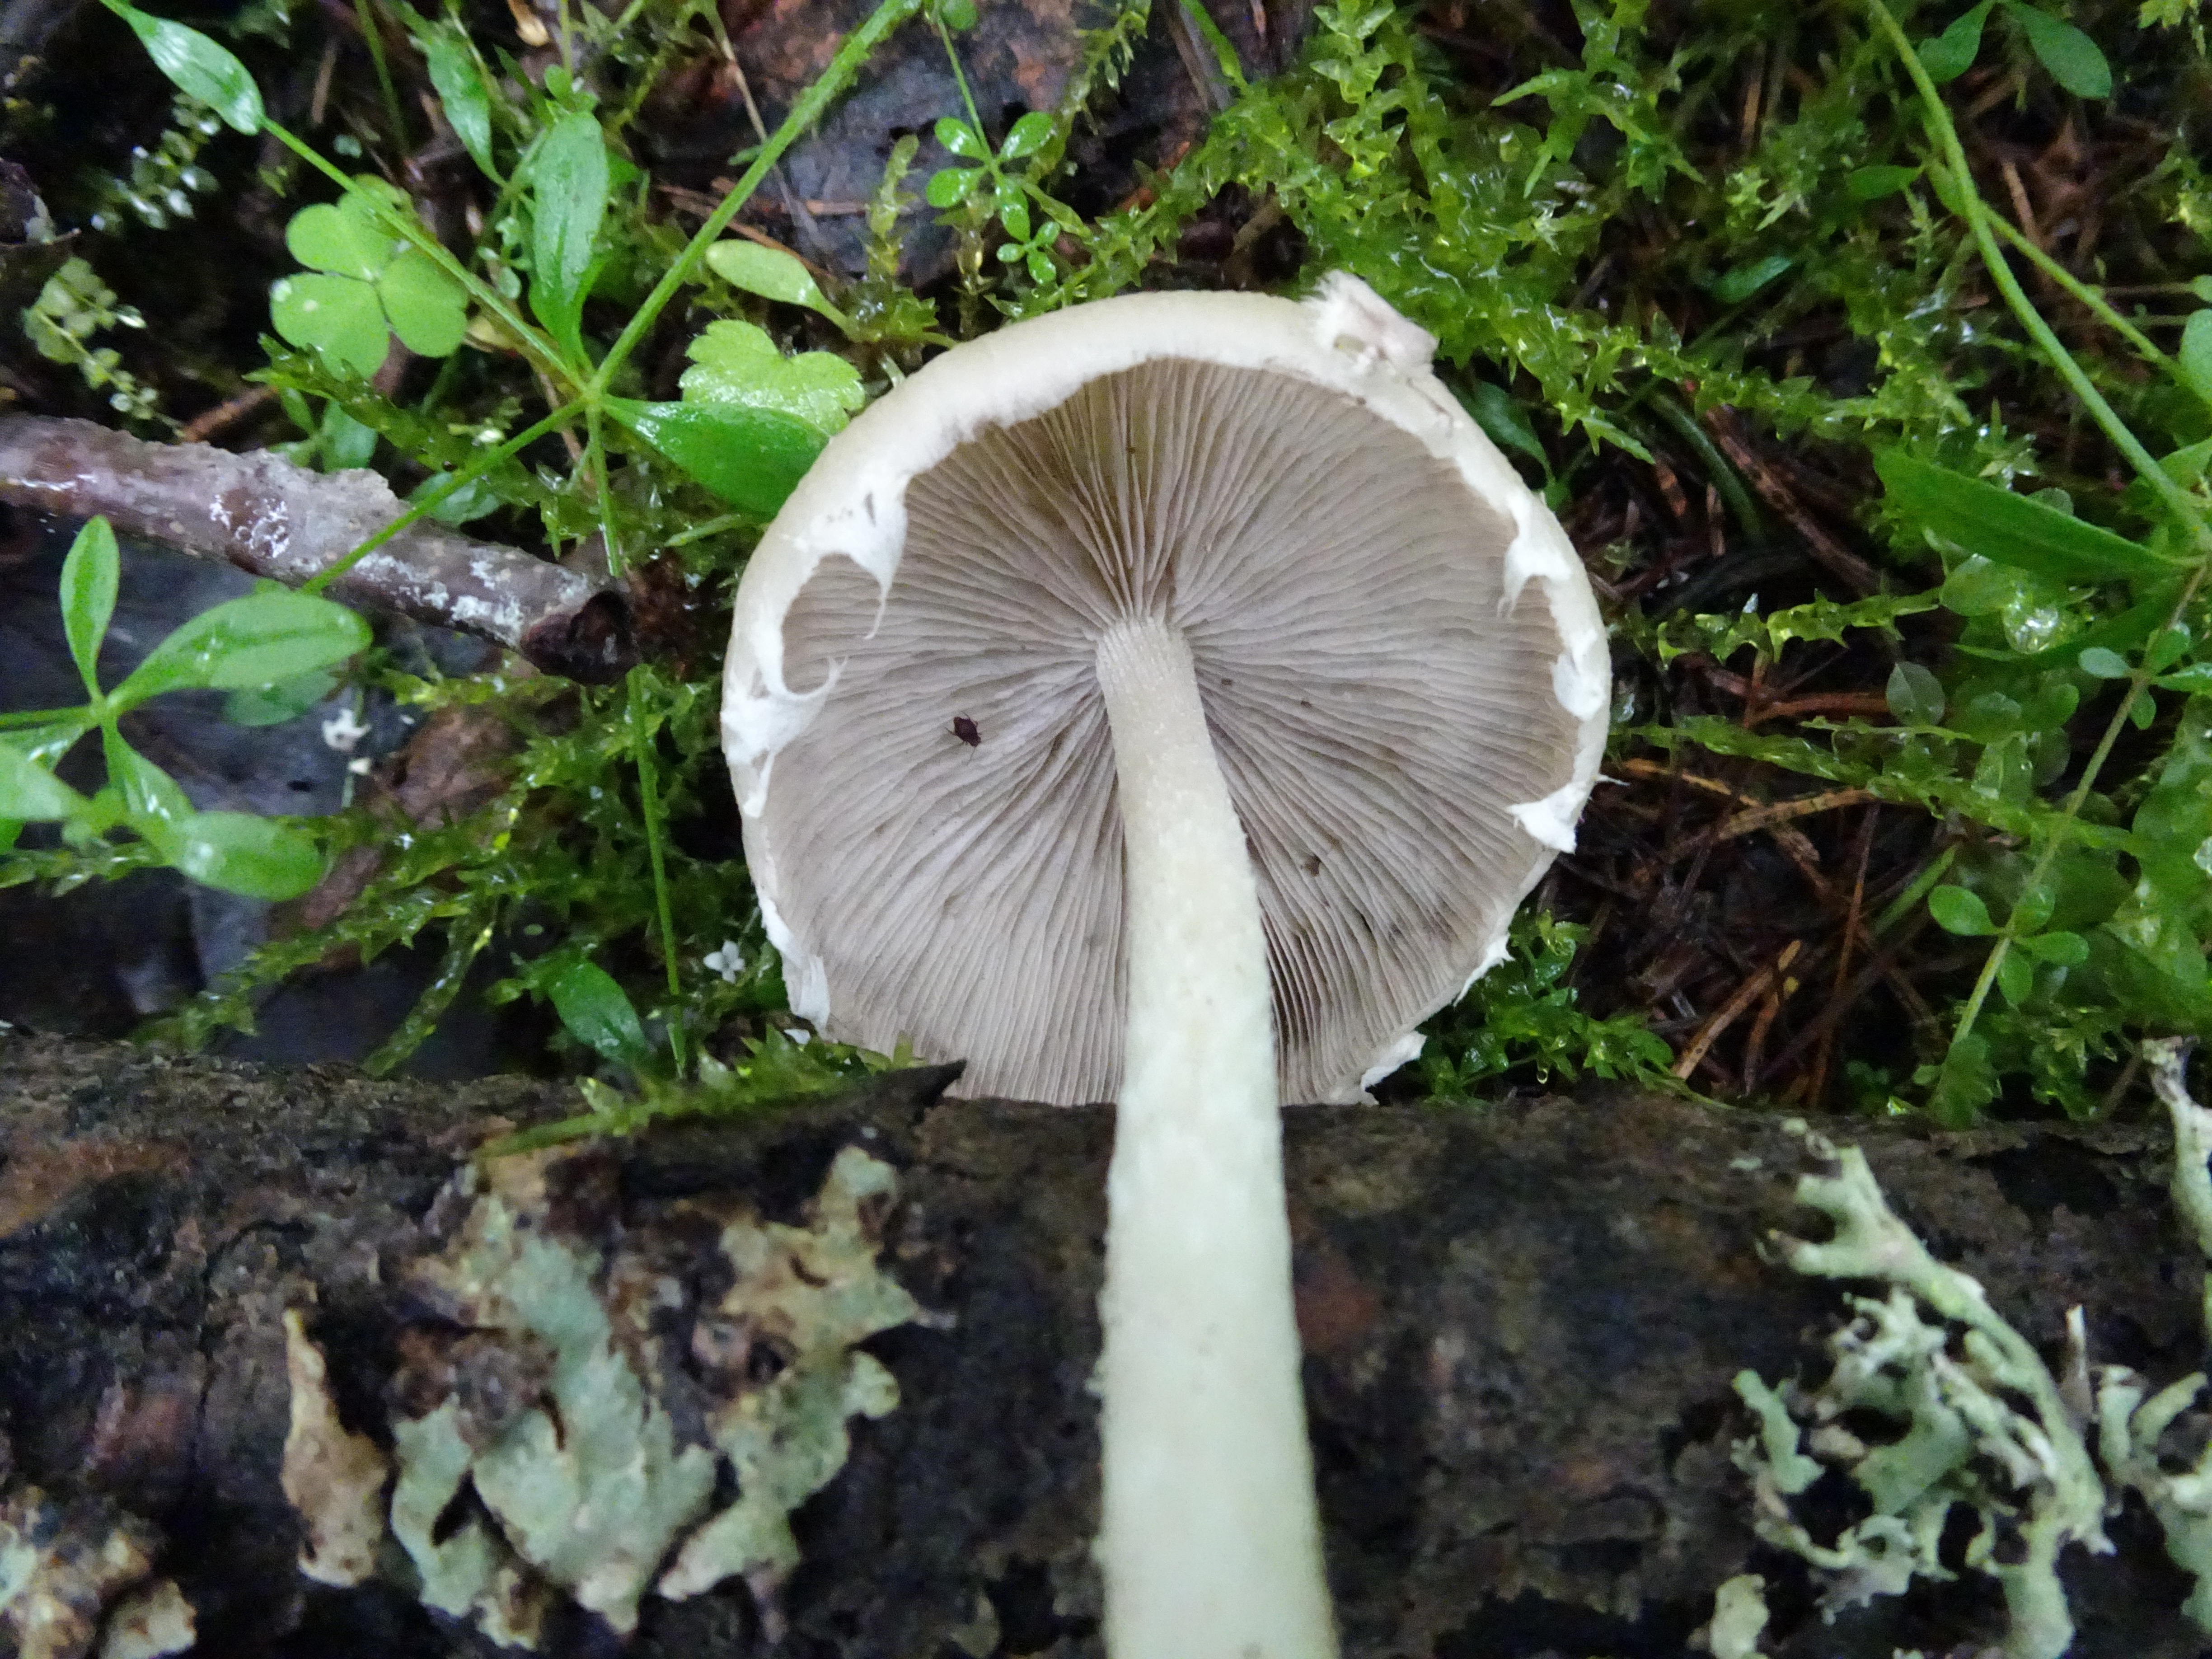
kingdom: Fungi
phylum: Basidiomycota
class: Agaricomycetes
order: Agaricales
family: Psathyrellaceae
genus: Candolleomyces
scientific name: Candolleomyces candolleanus
